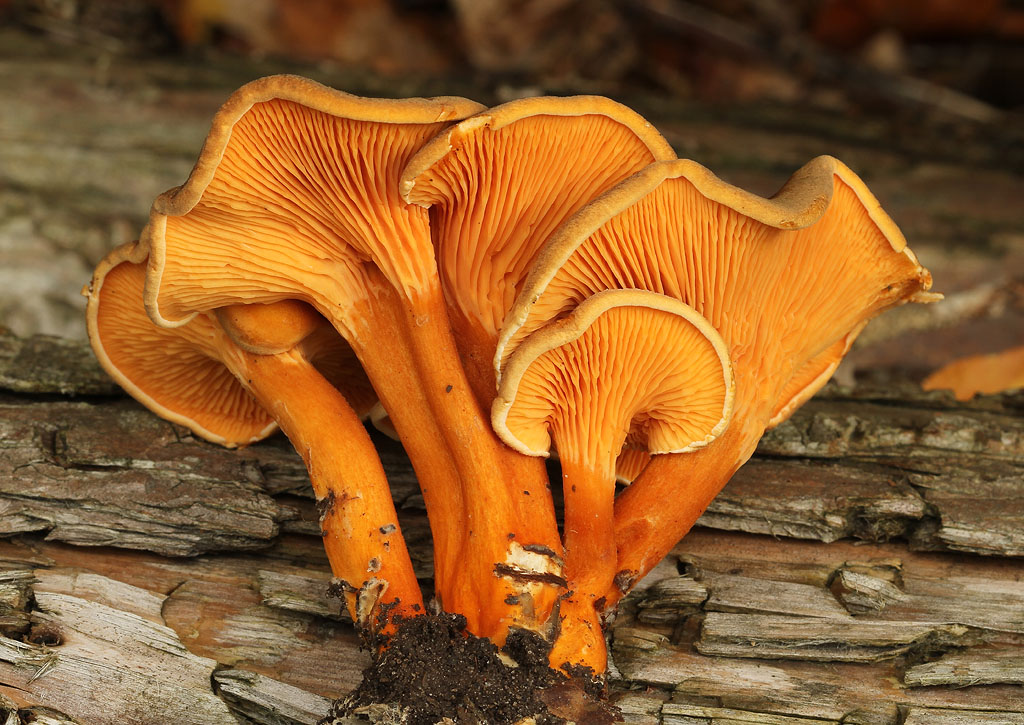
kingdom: Fungi
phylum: Basidiomycota
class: Agaricomycetes
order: Boletales
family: Hygrophoropsidaceae
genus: Hygrophoropsis
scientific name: Hygrophoropsis rufa
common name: brunfiltet orangekantarel
